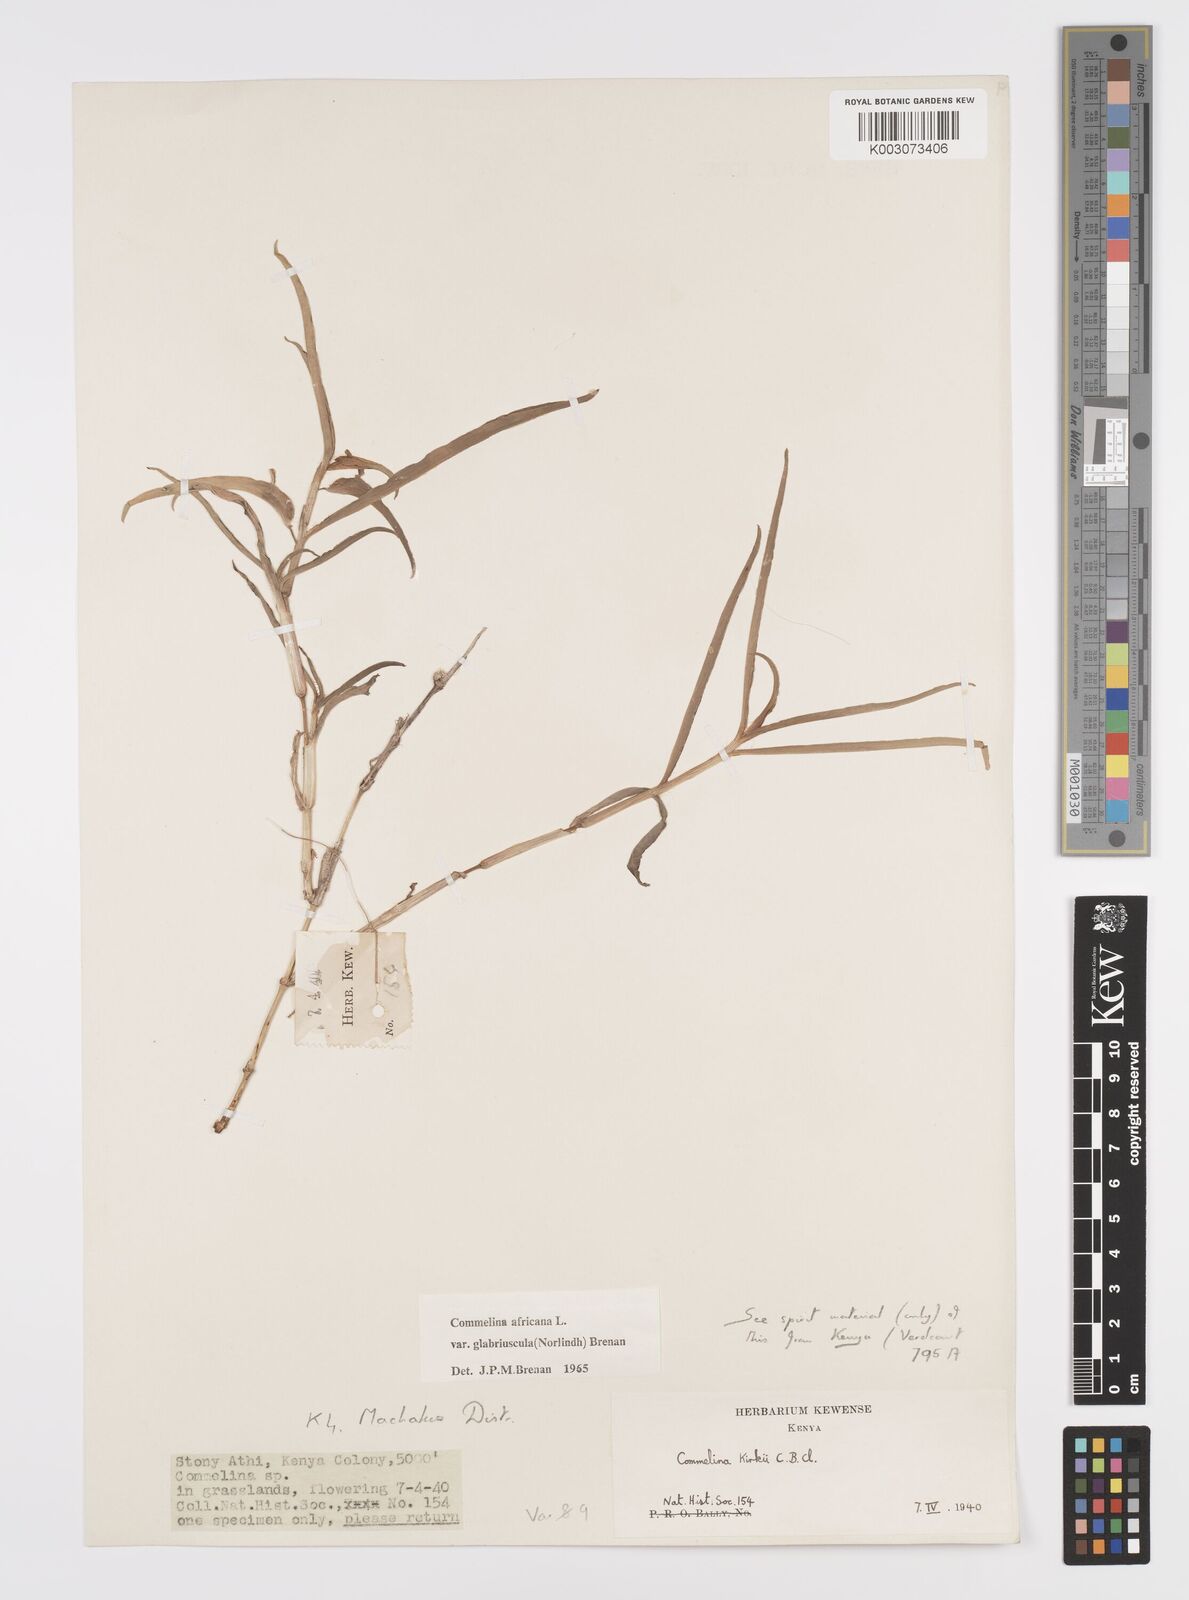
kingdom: Plantae
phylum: Tracheophyta
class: Liliopsida
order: Commelinales
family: Commelinaceae
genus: Commelina
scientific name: Commelina africana
